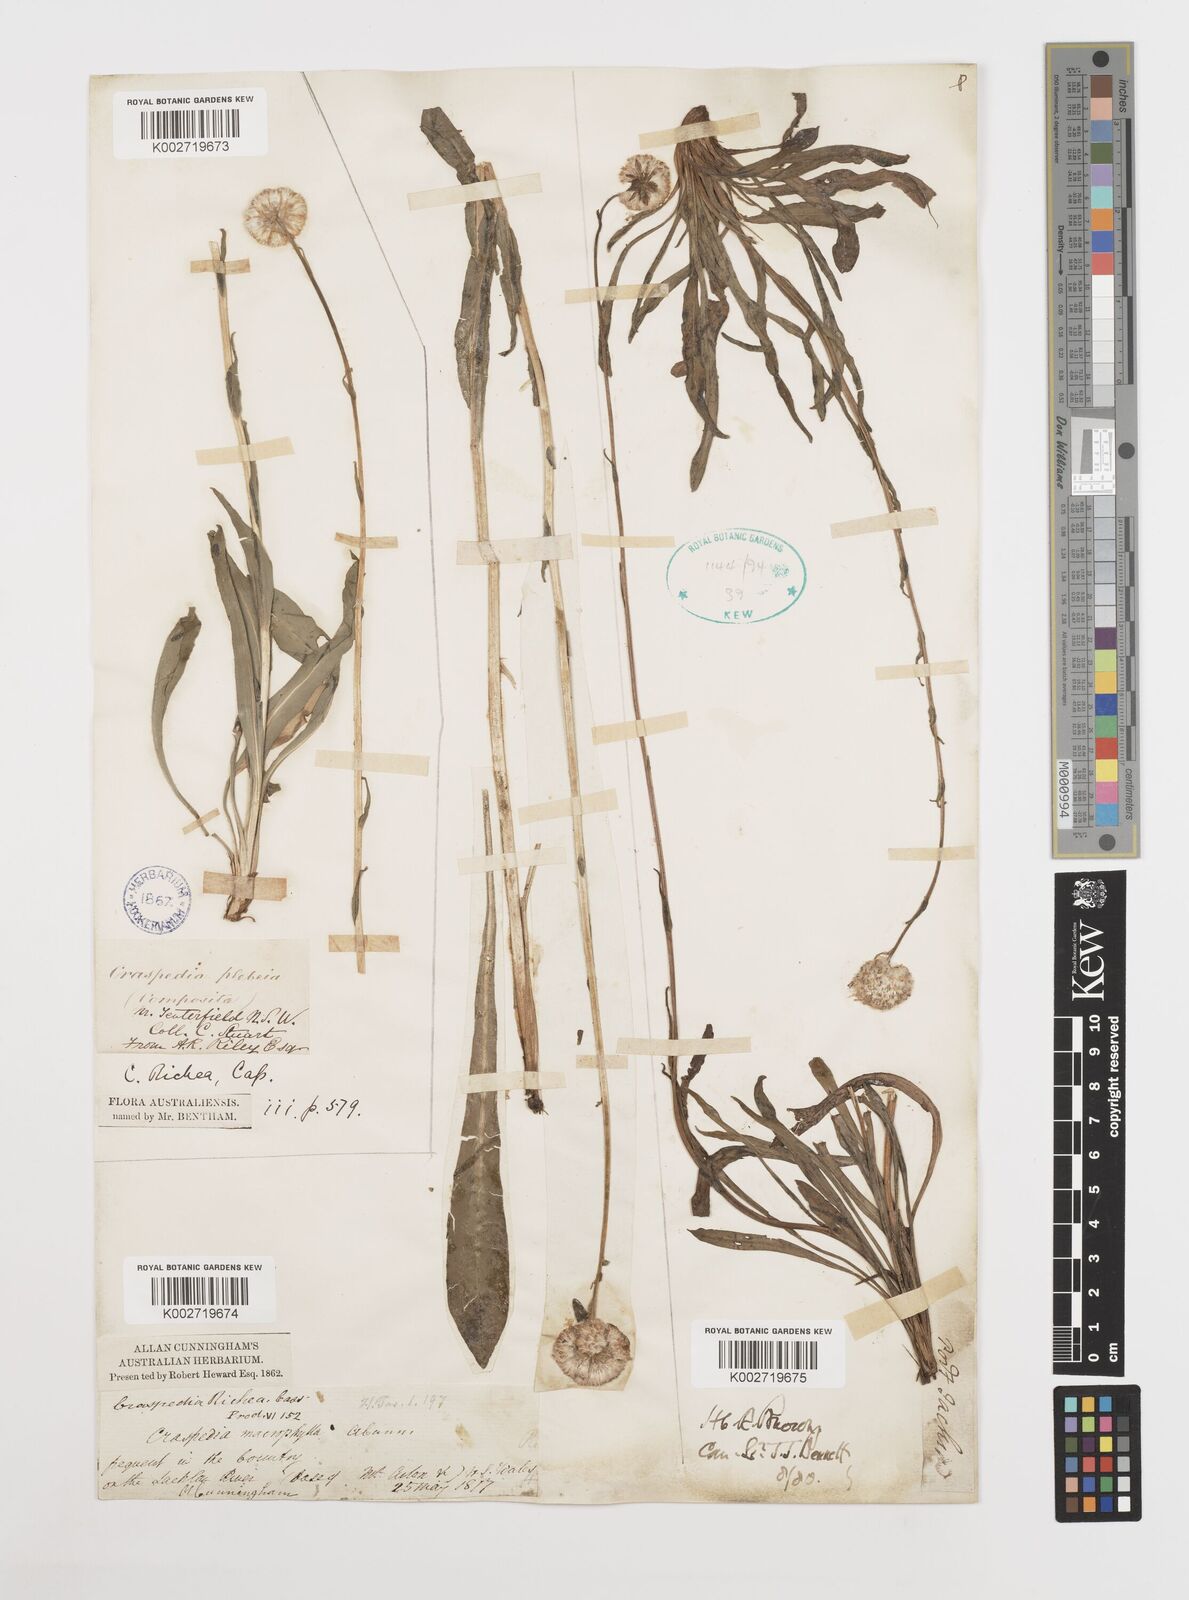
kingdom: Plantae
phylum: Tracheophyta
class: Magnoliopsida
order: Asterales
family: Asteraceae
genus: Craspedia
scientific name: Craspedia glauca
